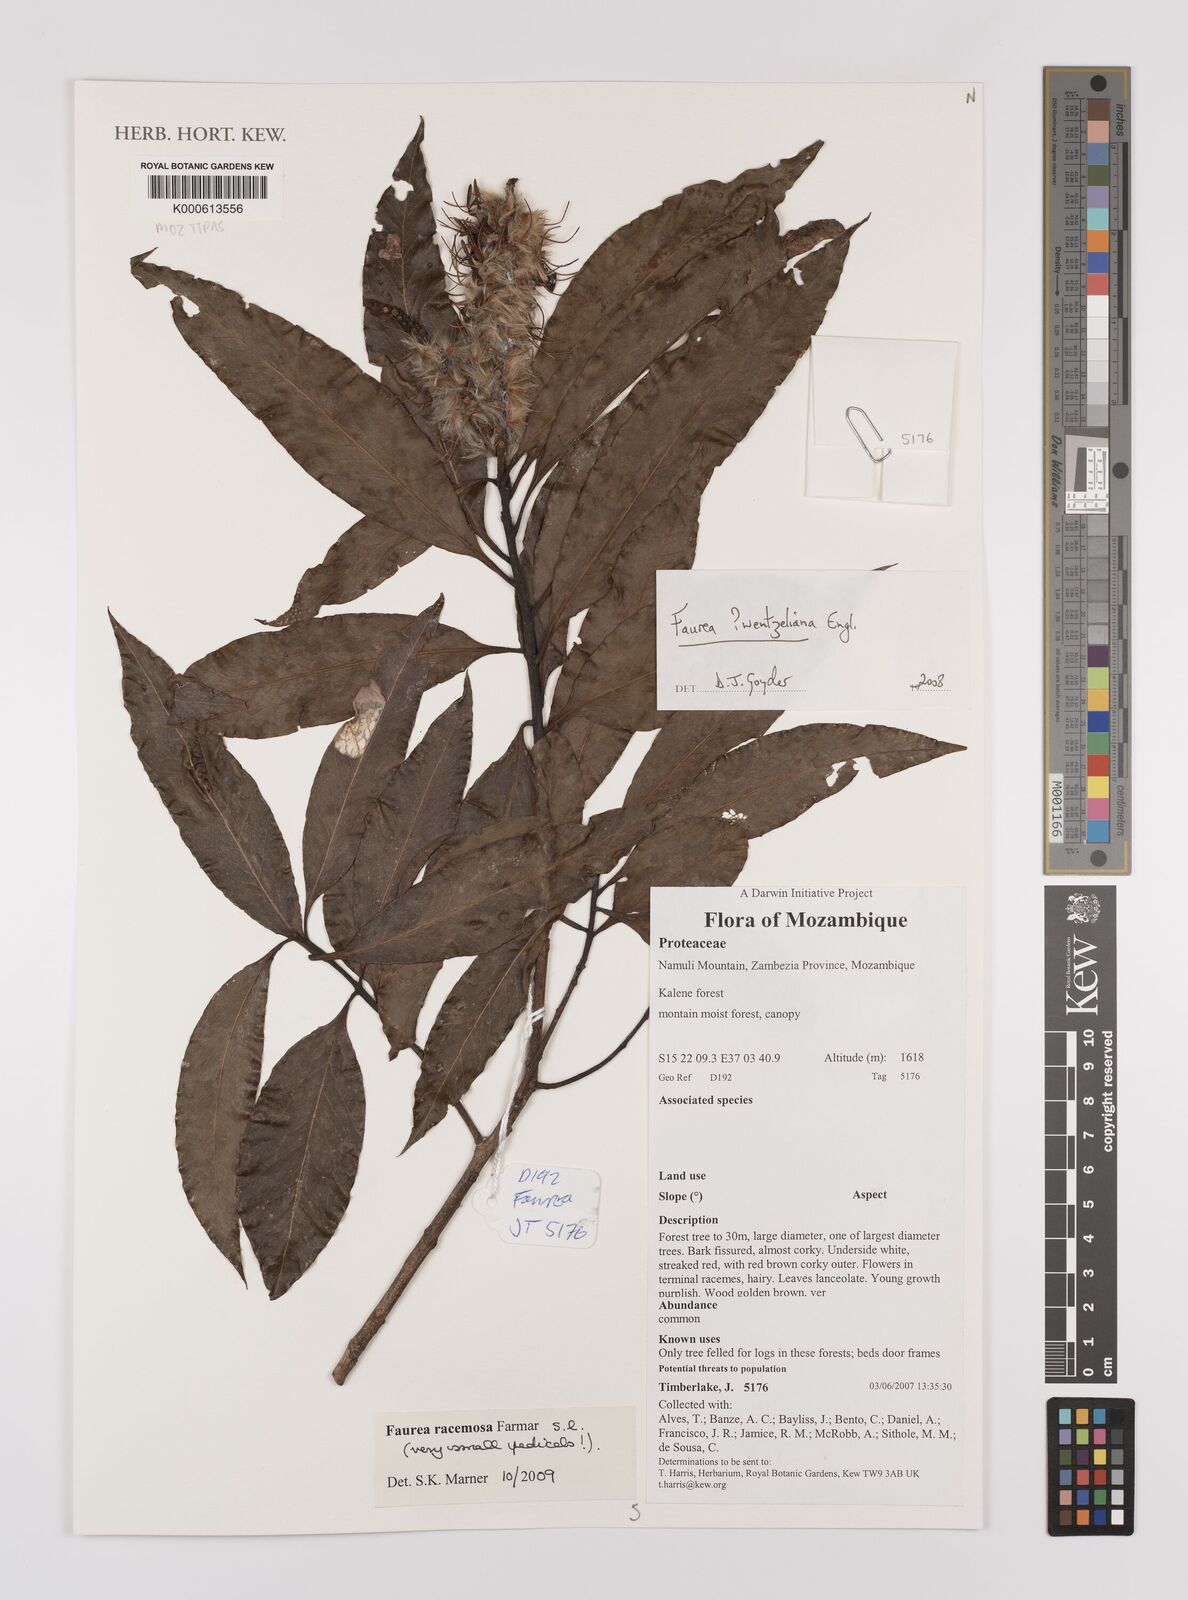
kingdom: Plantae
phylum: Tracheophyta
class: Magnoliopsida
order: Proteales
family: Proteaceae
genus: Faurea
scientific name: Faurea wentzeliana
